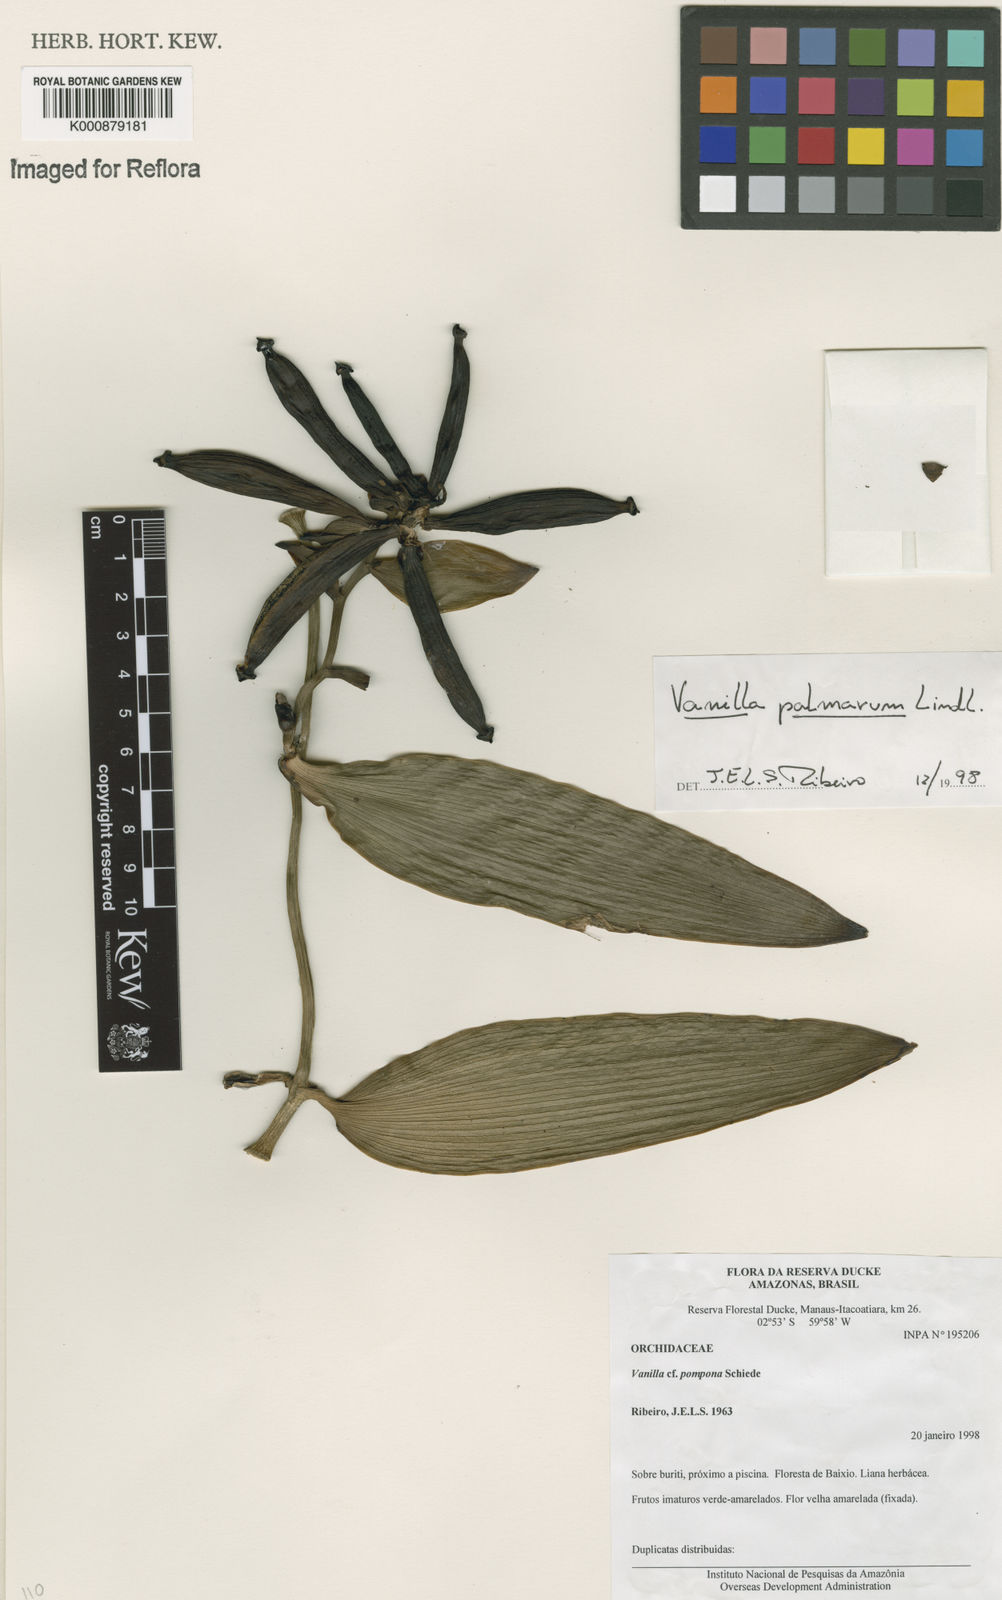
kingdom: Plantae
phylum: Tracheophyta
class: Liliopsida
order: Asparagales
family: Orchidaceae
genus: Vanilla
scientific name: Vanilla palmarum
